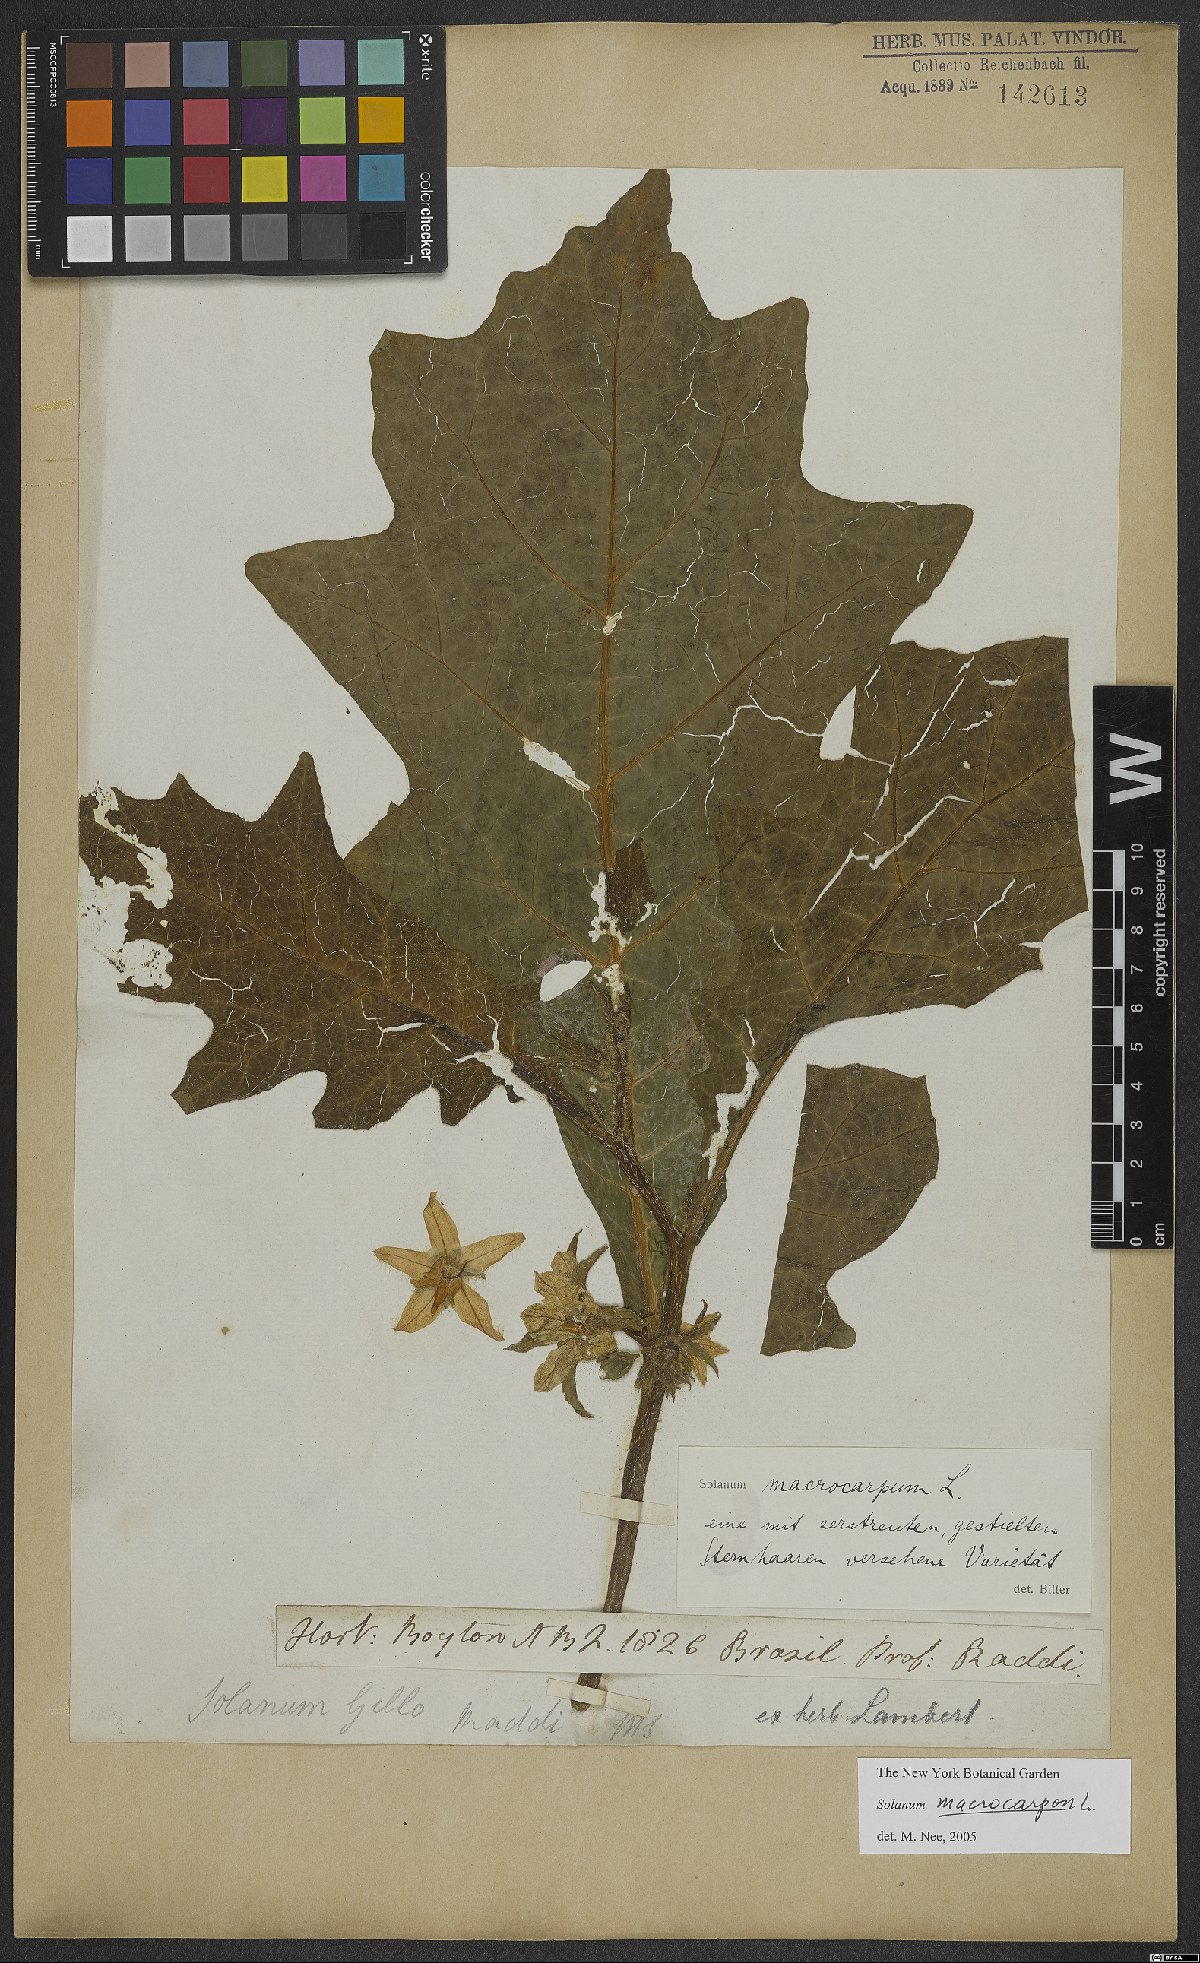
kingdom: Plantae
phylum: Tracheophyta
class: Magnoliopsida
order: Solanales
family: Solanaceae
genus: Solanum
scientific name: Solanum macrocarpon
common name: African eggplant
